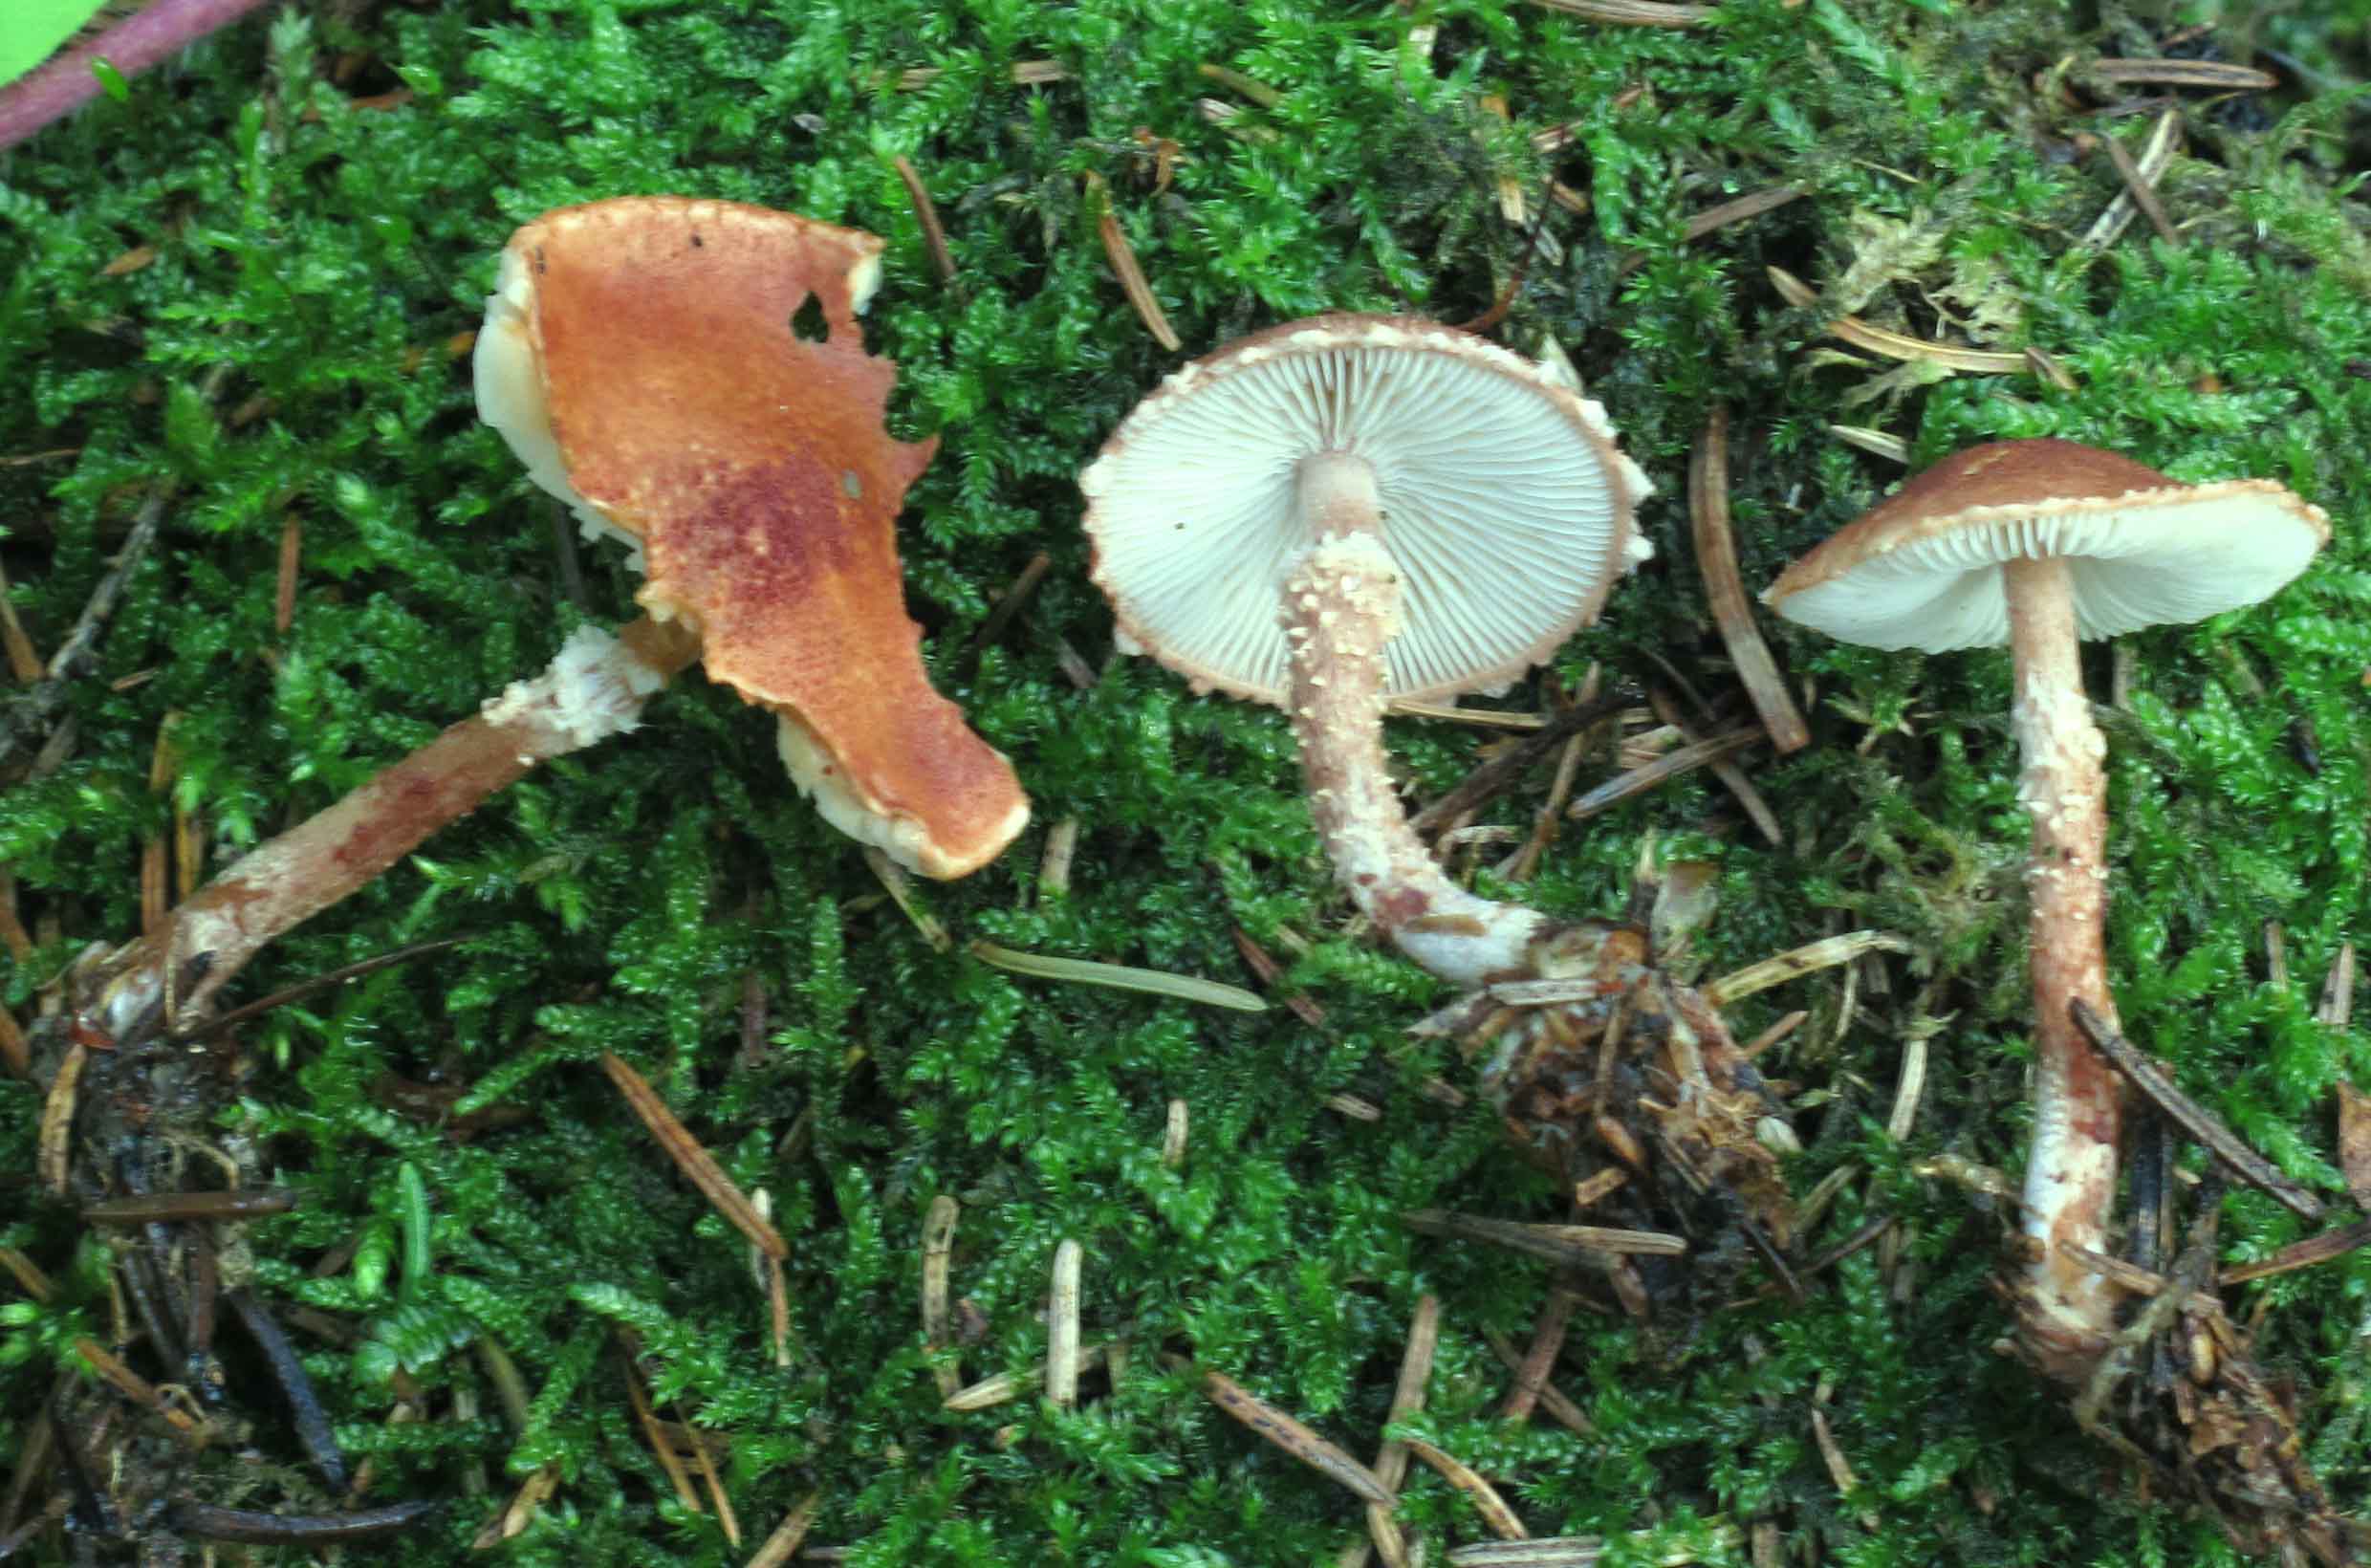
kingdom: Fungi
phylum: Basidiomycota
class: Agaricomycetes
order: Agaricales
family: Agaricaceae
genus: Cystodermella
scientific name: Cystodermella granulosa
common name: kliddet grynhat
